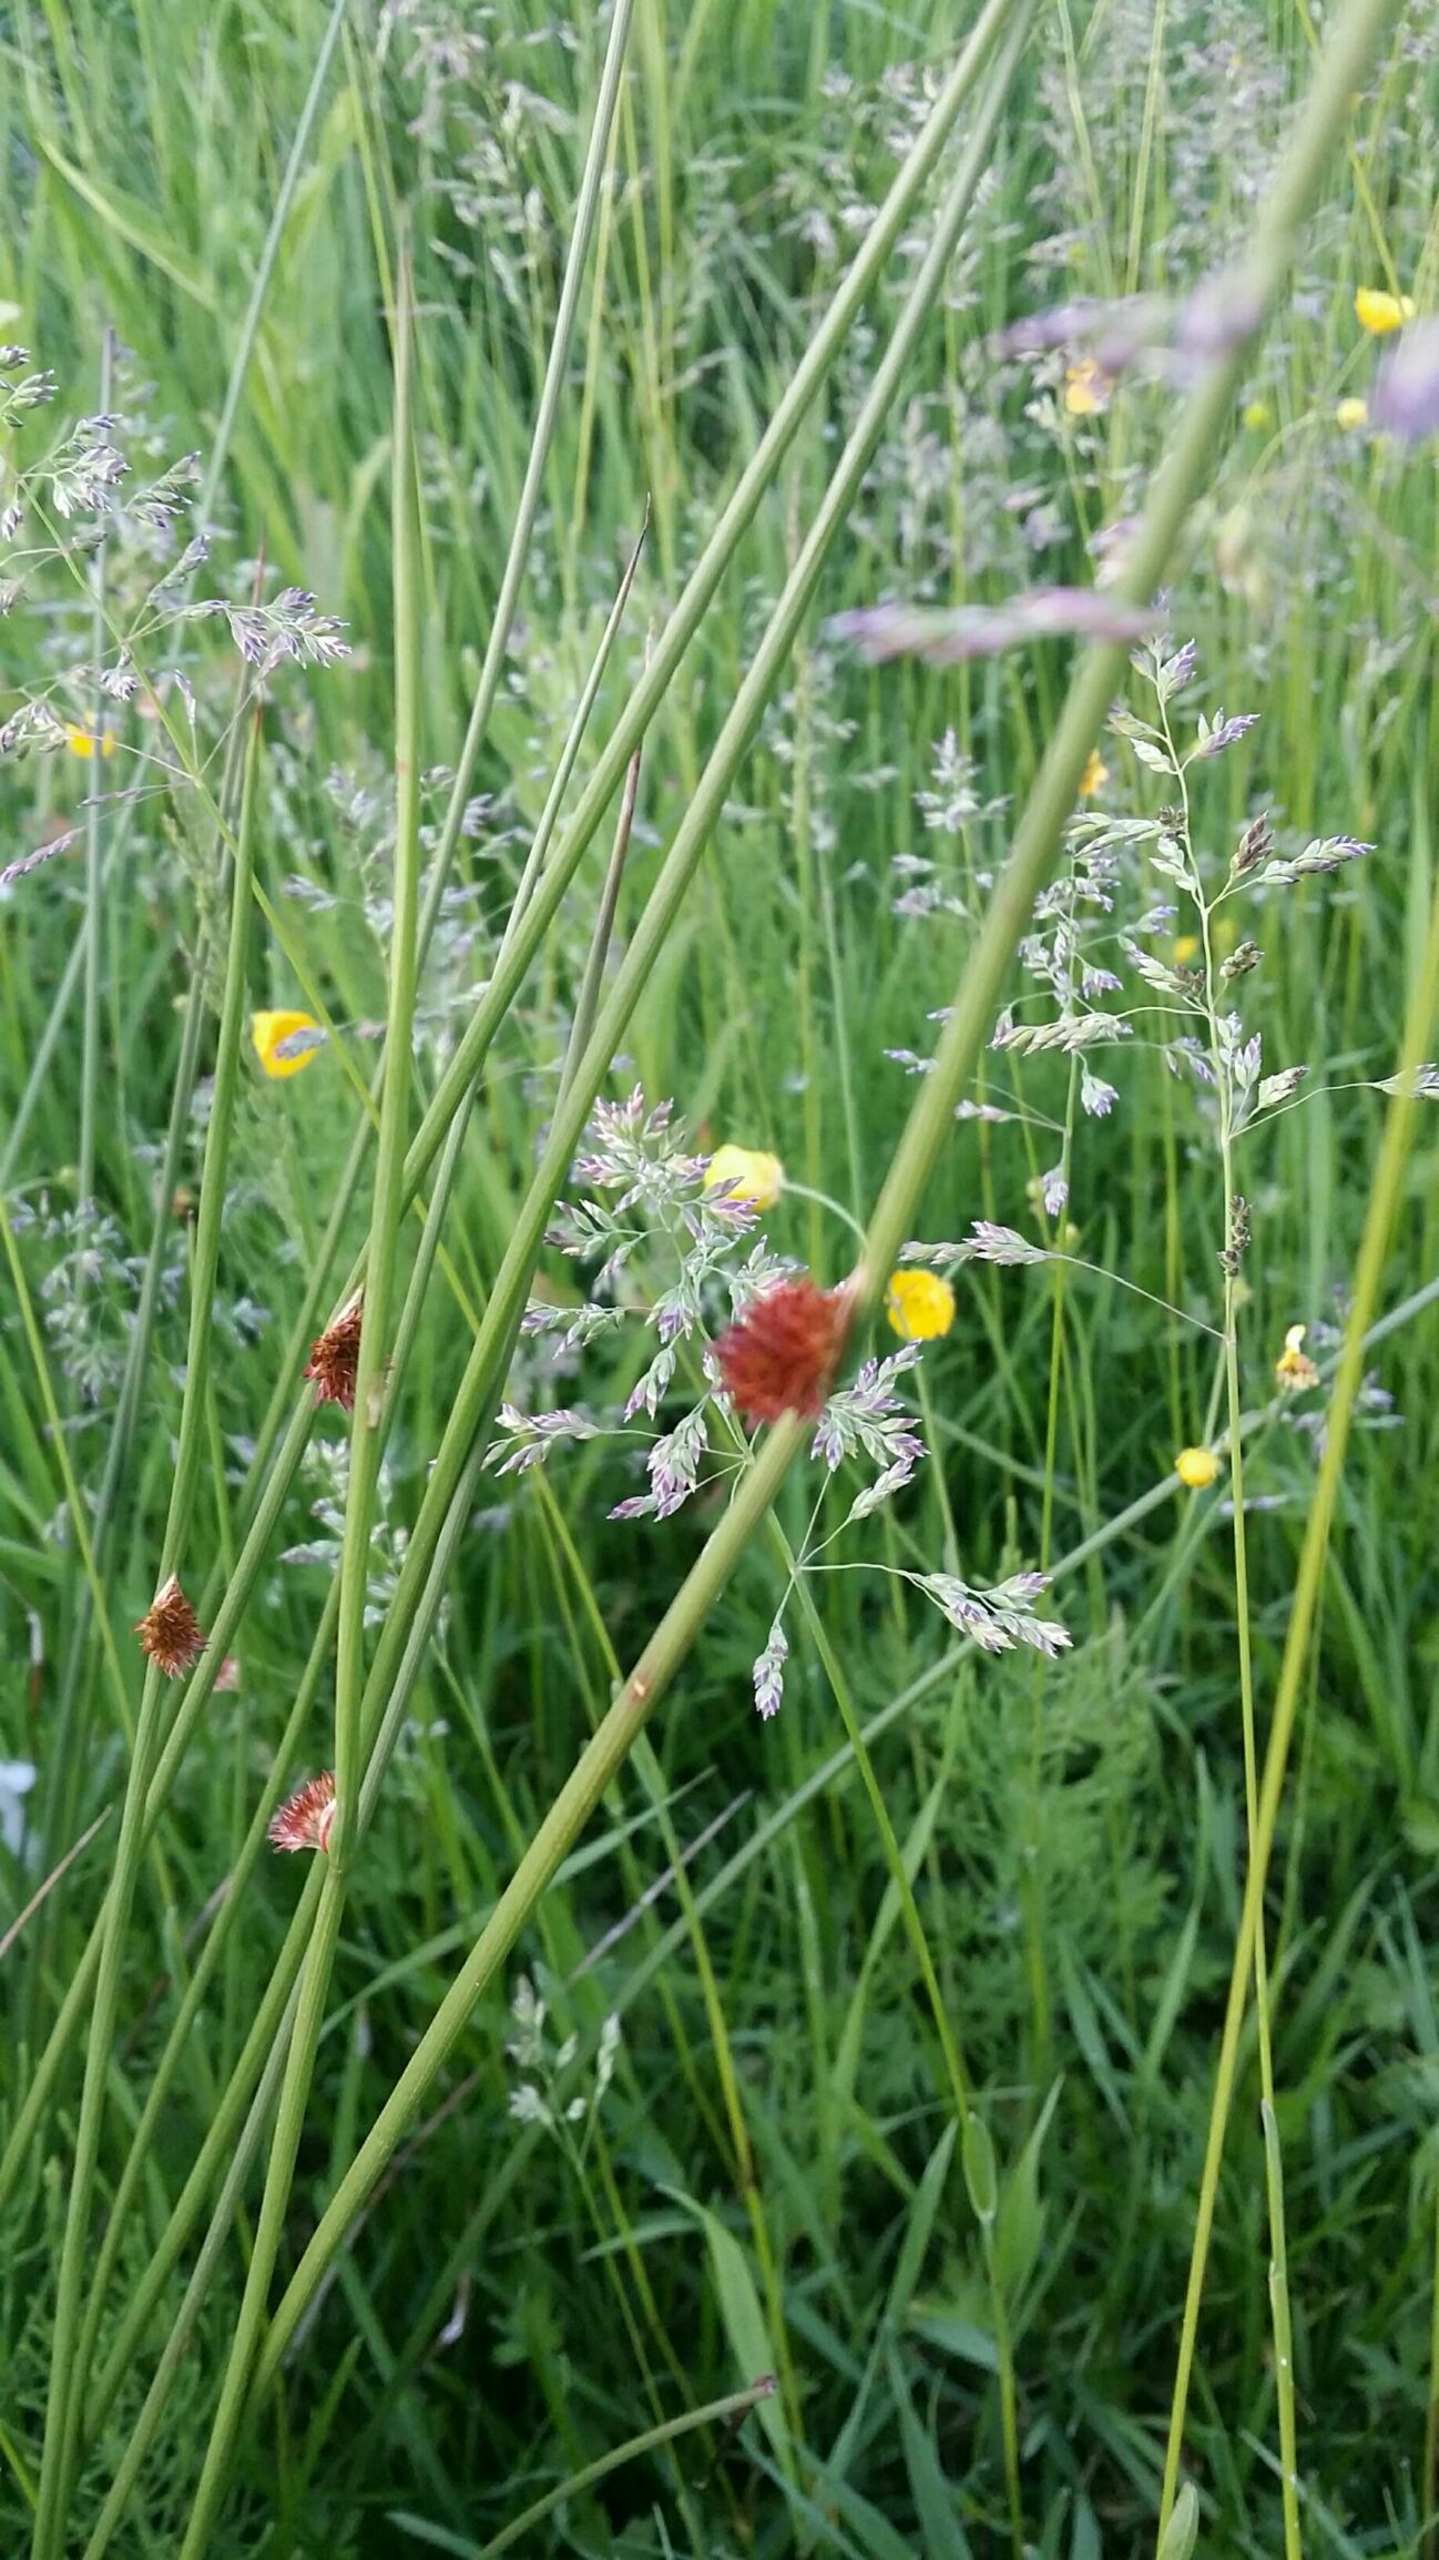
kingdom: Plantae
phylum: Tracheophyta
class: Liliopsida
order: Poales
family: Juncaceae
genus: Juncus
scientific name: Juncus conglomeratus
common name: Knop-siv
